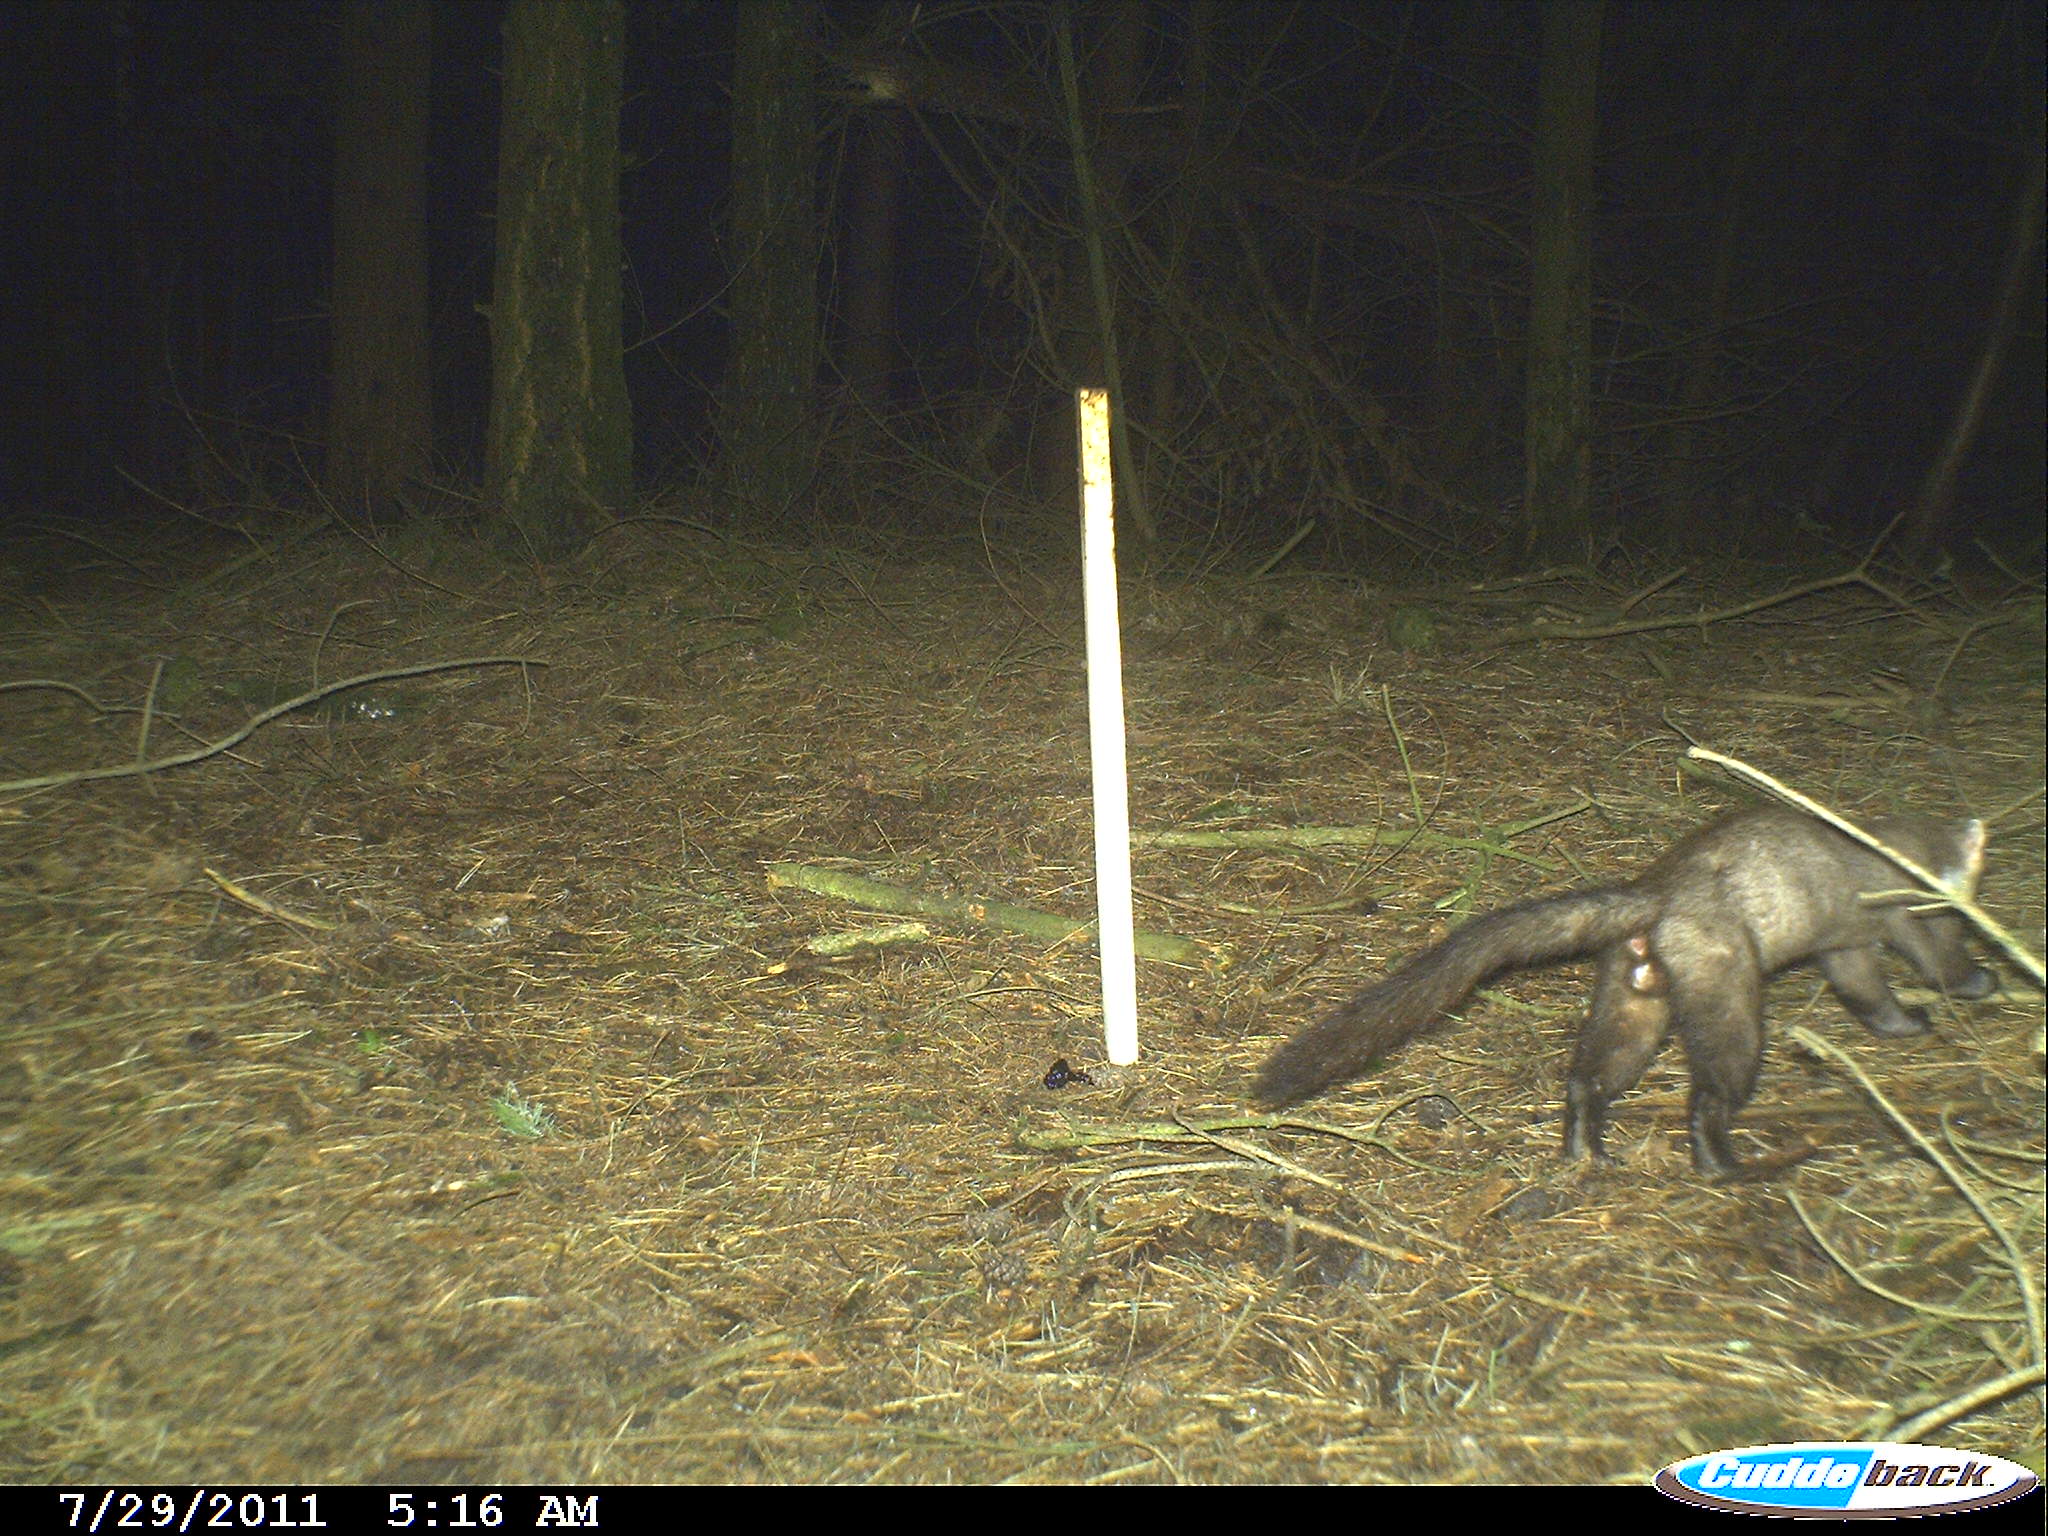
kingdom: Animalia
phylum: Chordata
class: Mammalia
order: Carnivora
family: Mustelidae
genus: Martes
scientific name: Martes foina
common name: Beech marten
